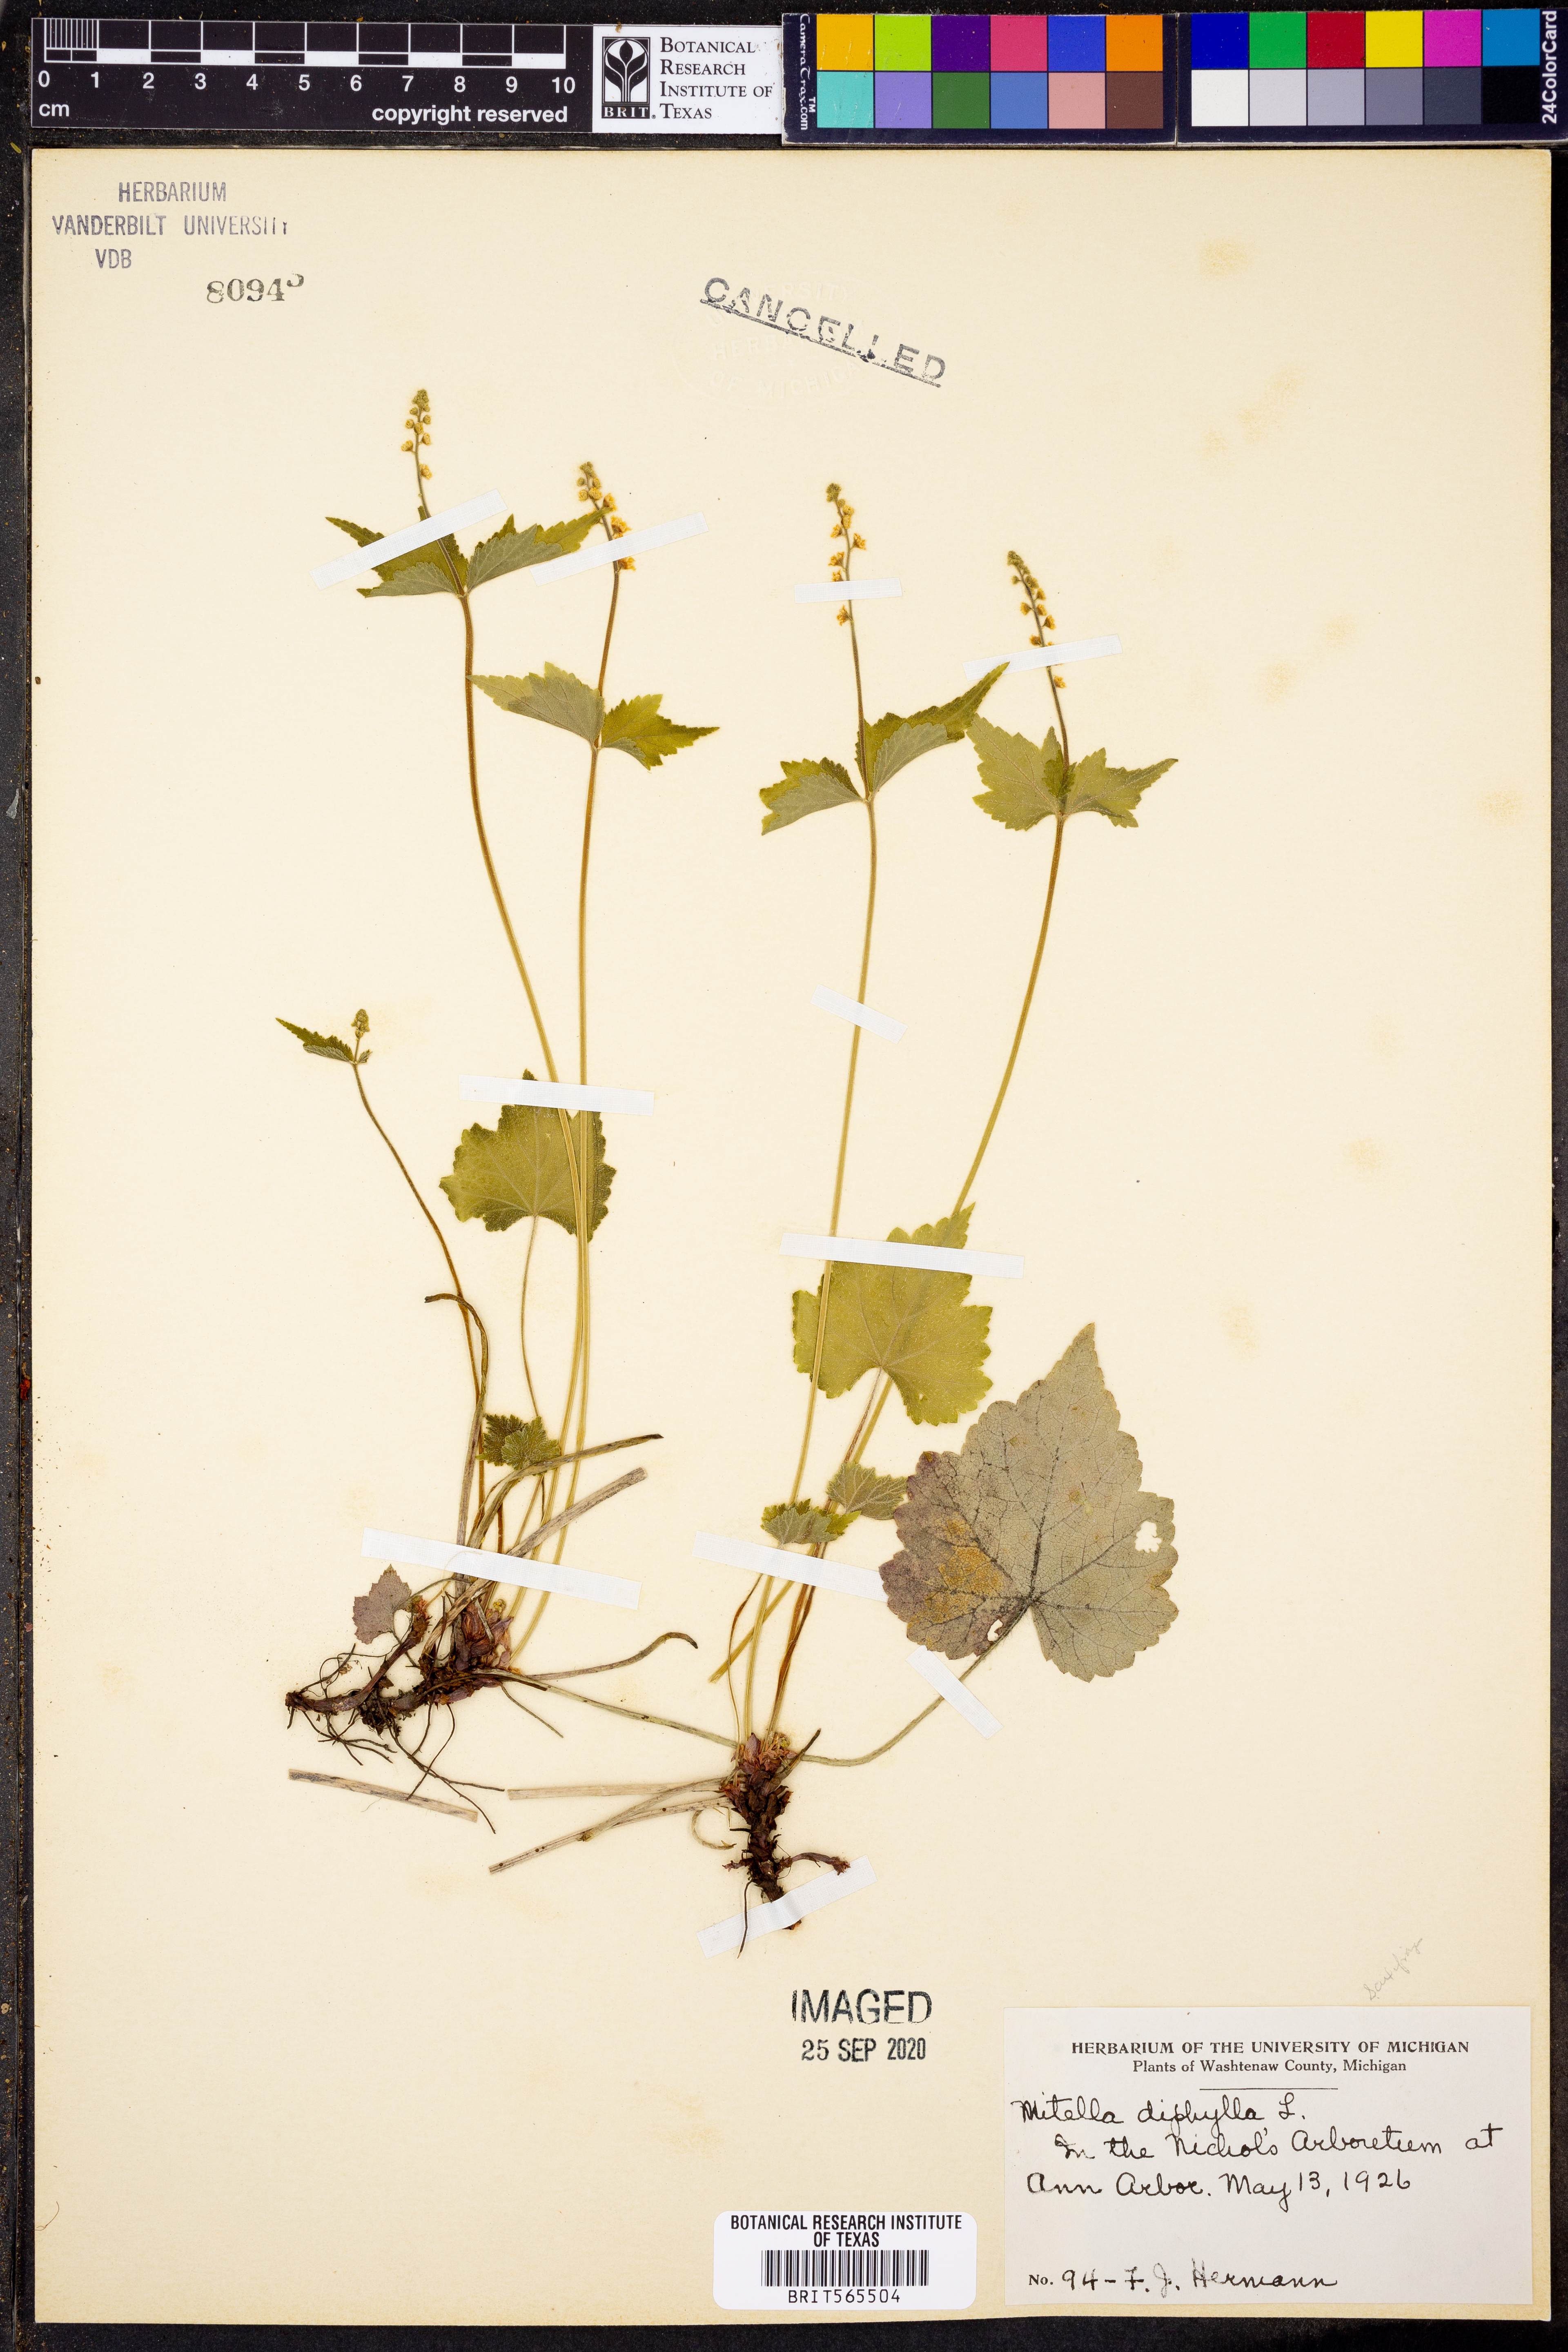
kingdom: Plantae
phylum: Tracheophyta
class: Magnoliopsida
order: Saxifragales
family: Saxifragaceae
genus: Mitella
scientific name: Mitella diphylla
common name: Coolwort
